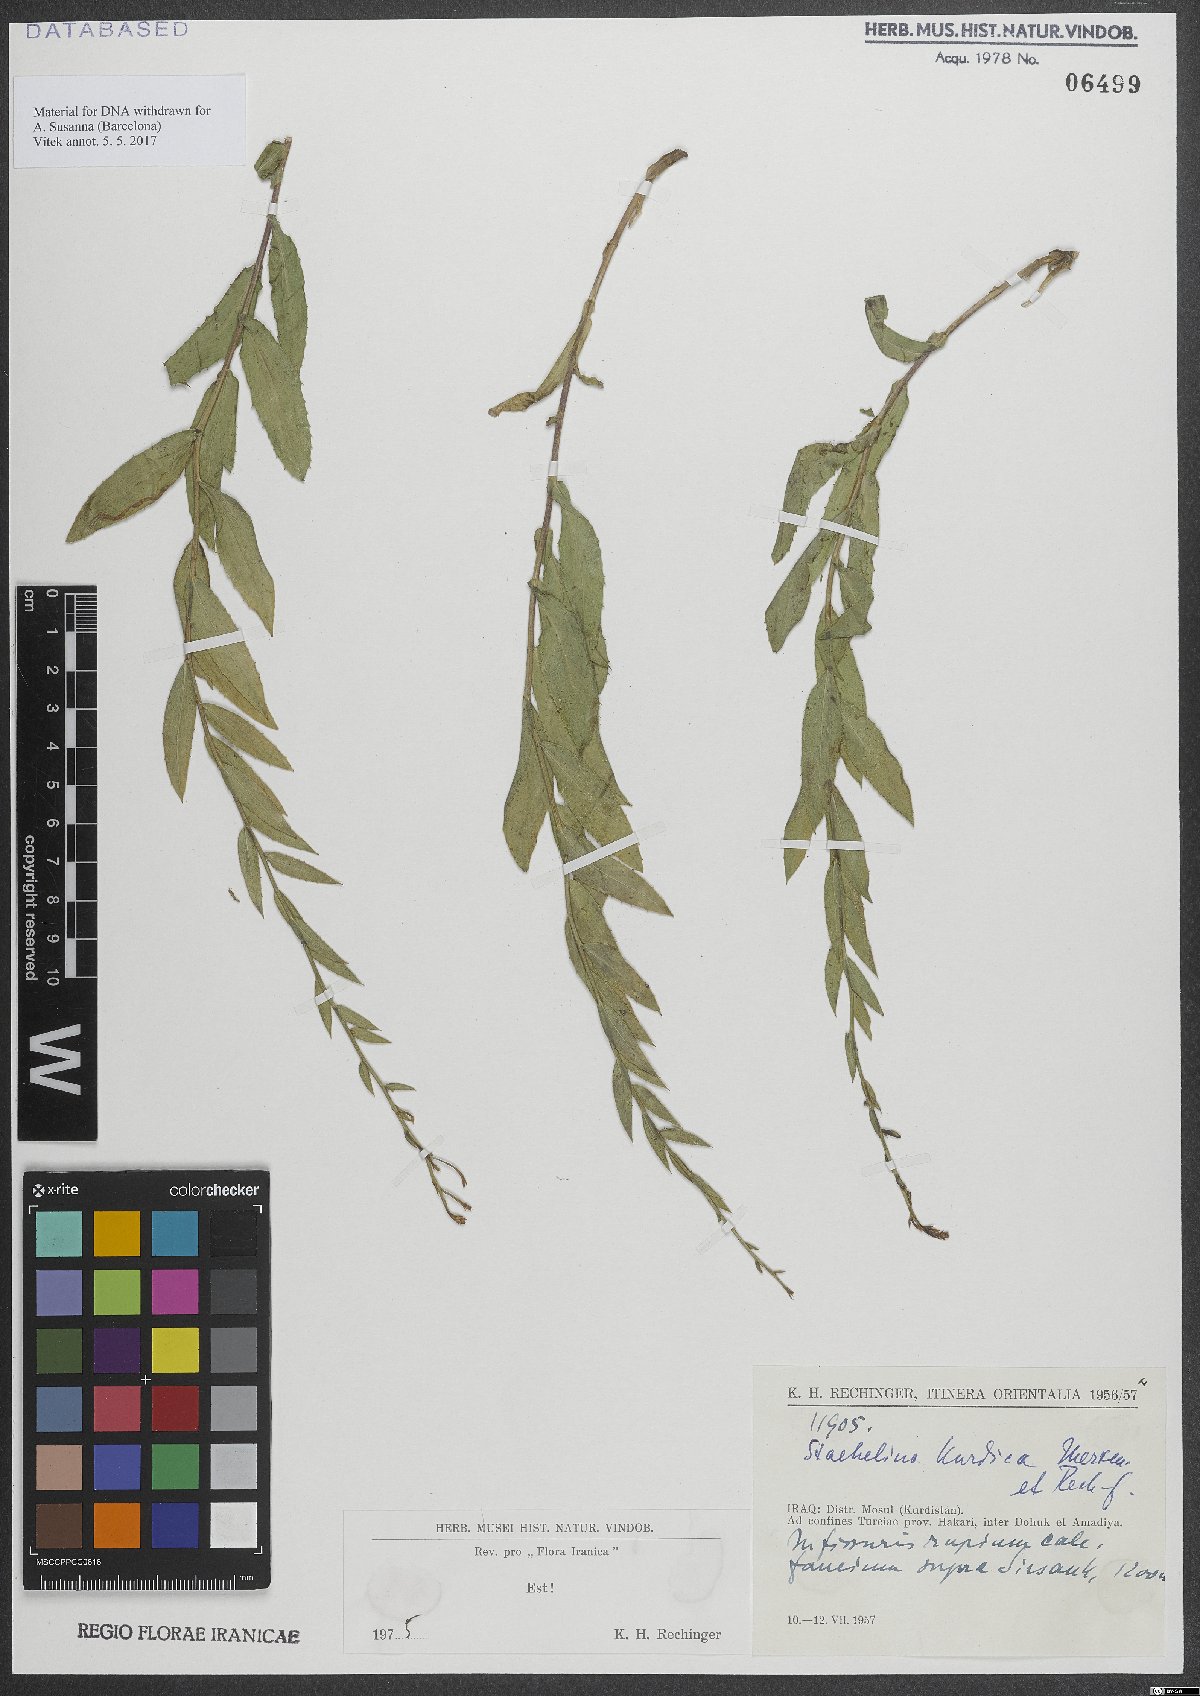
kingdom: Plantae
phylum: Tracheophyta
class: Magnoliopsida
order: Asterales
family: Asteraceae
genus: Hirtellina
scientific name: Hirtellina kurdica
